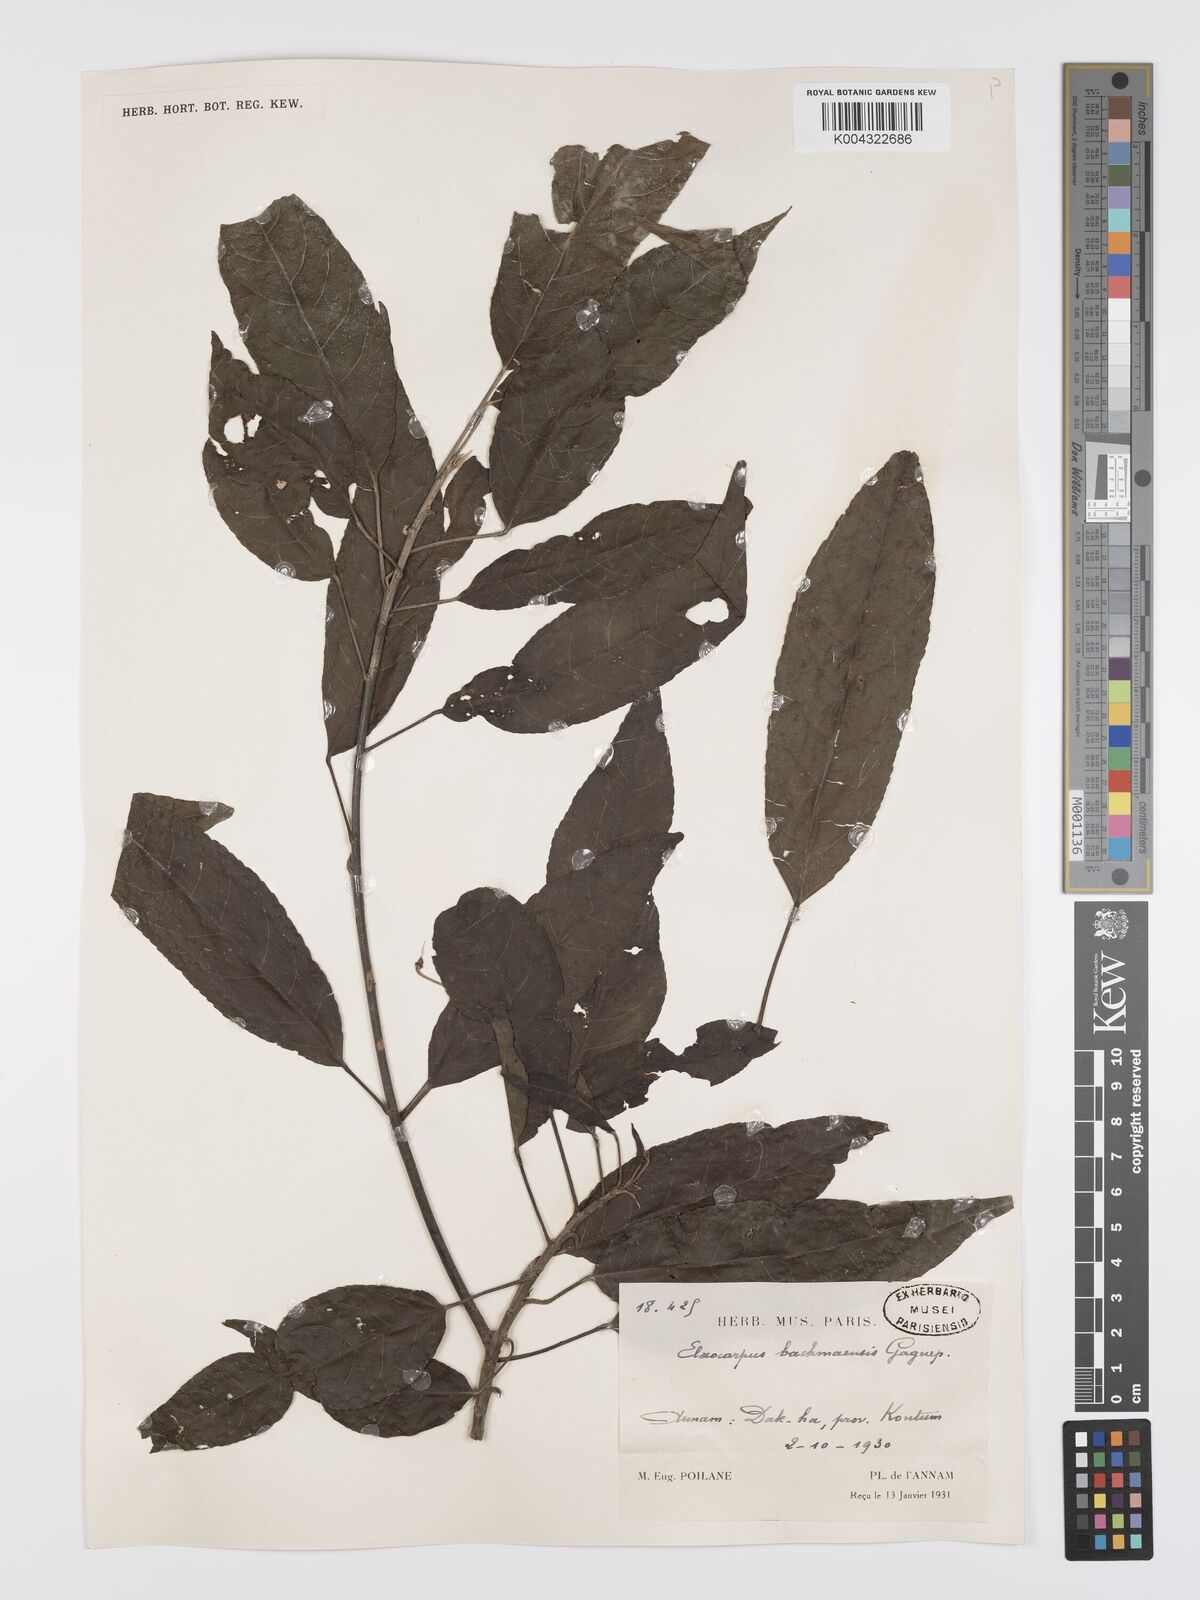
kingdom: Plantae
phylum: Tracheophyta
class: Magnoliopsida
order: Oxalidales
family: Elaeocarpaceae
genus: Elaeocarpus
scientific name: Elaeocarpus bachmaensis
